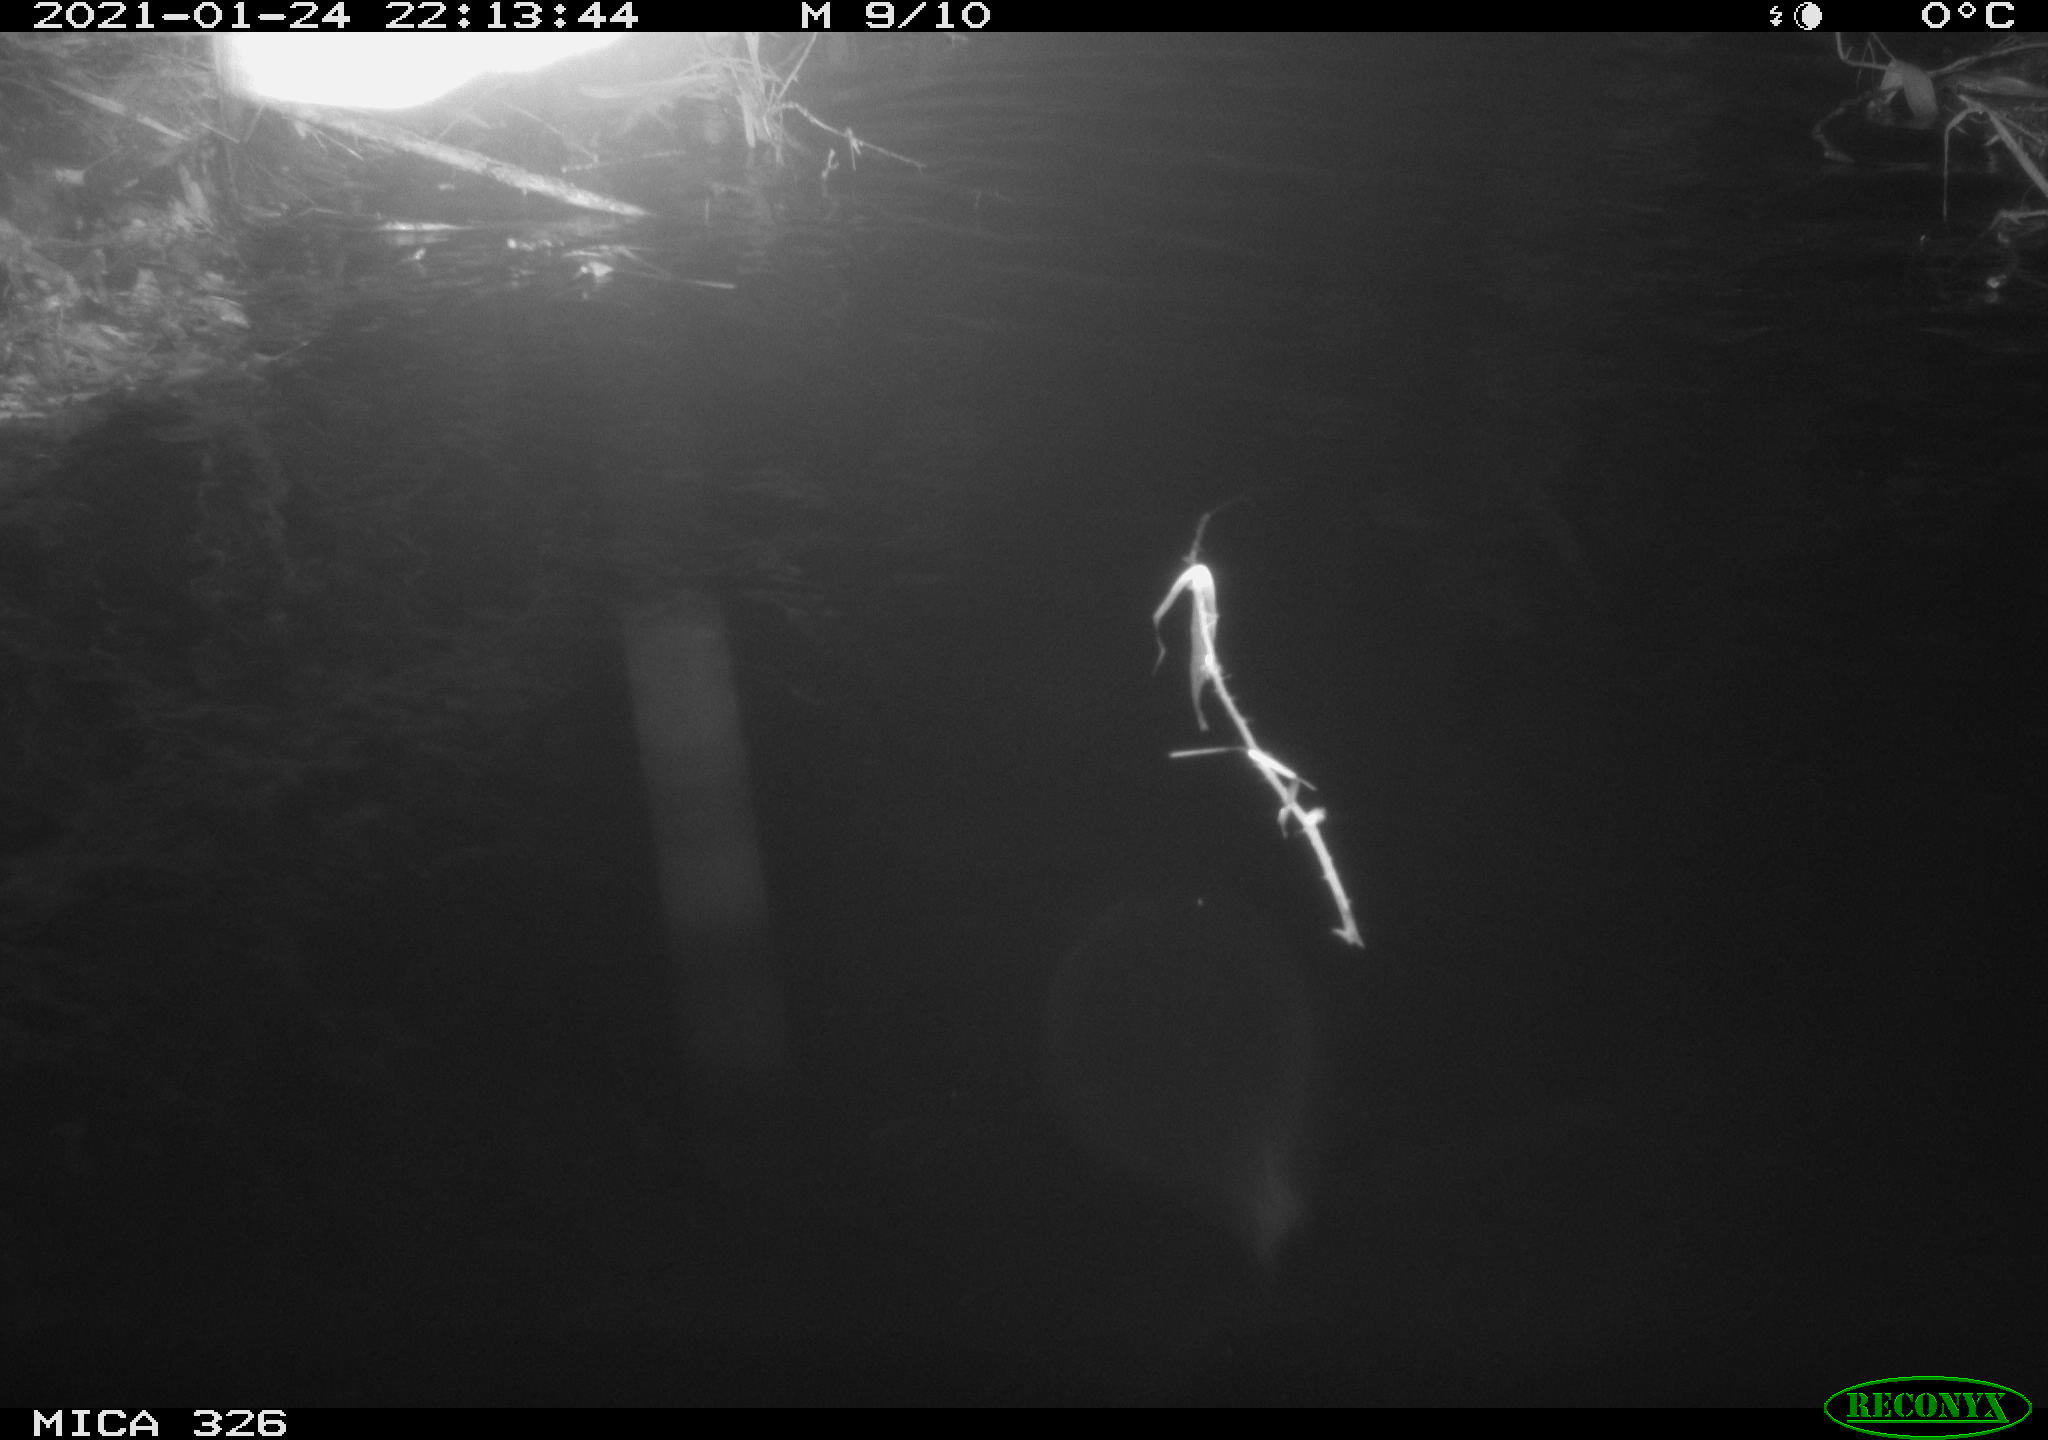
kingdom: Animalia
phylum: Chordata
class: Mammalia
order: Rodentia
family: Cricetidae
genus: Ondatra
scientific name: Ondatra zibethicus
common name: Muskrat
